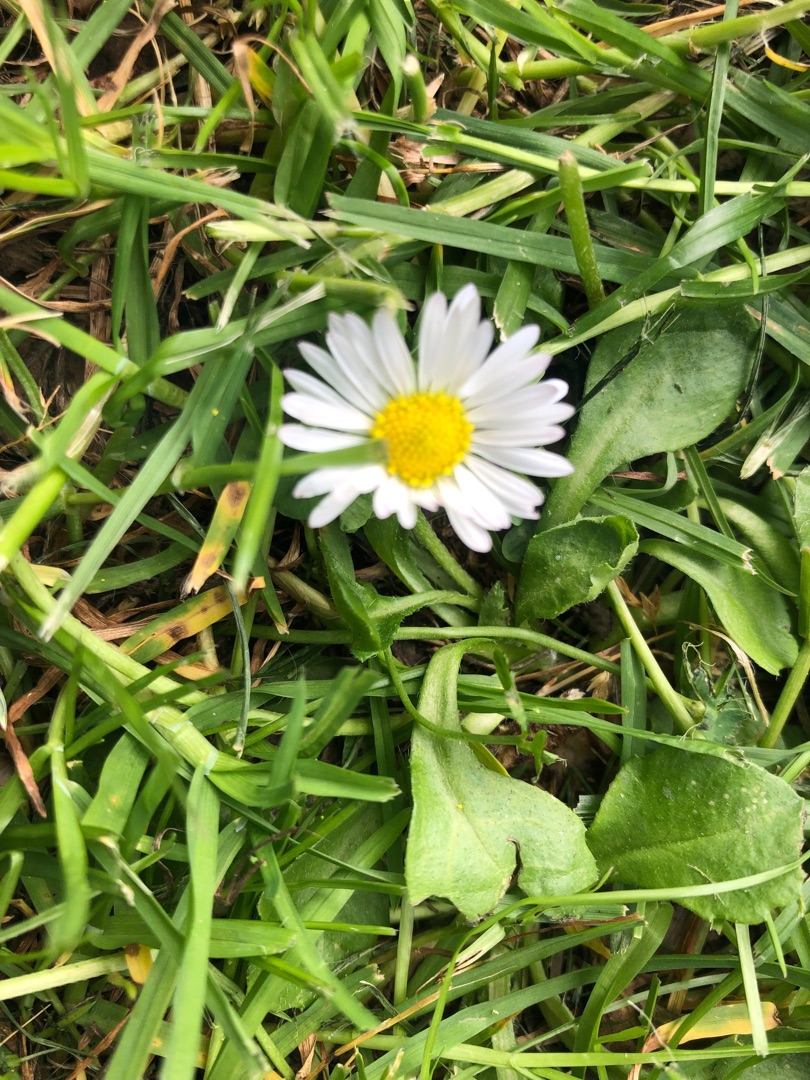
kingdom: Plantae
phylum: Tracheophyta
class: Magnoliopsida
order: Asterales
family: Asteraceae
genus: Bellis
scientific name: Bellis perennis
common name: Tusindfryd
